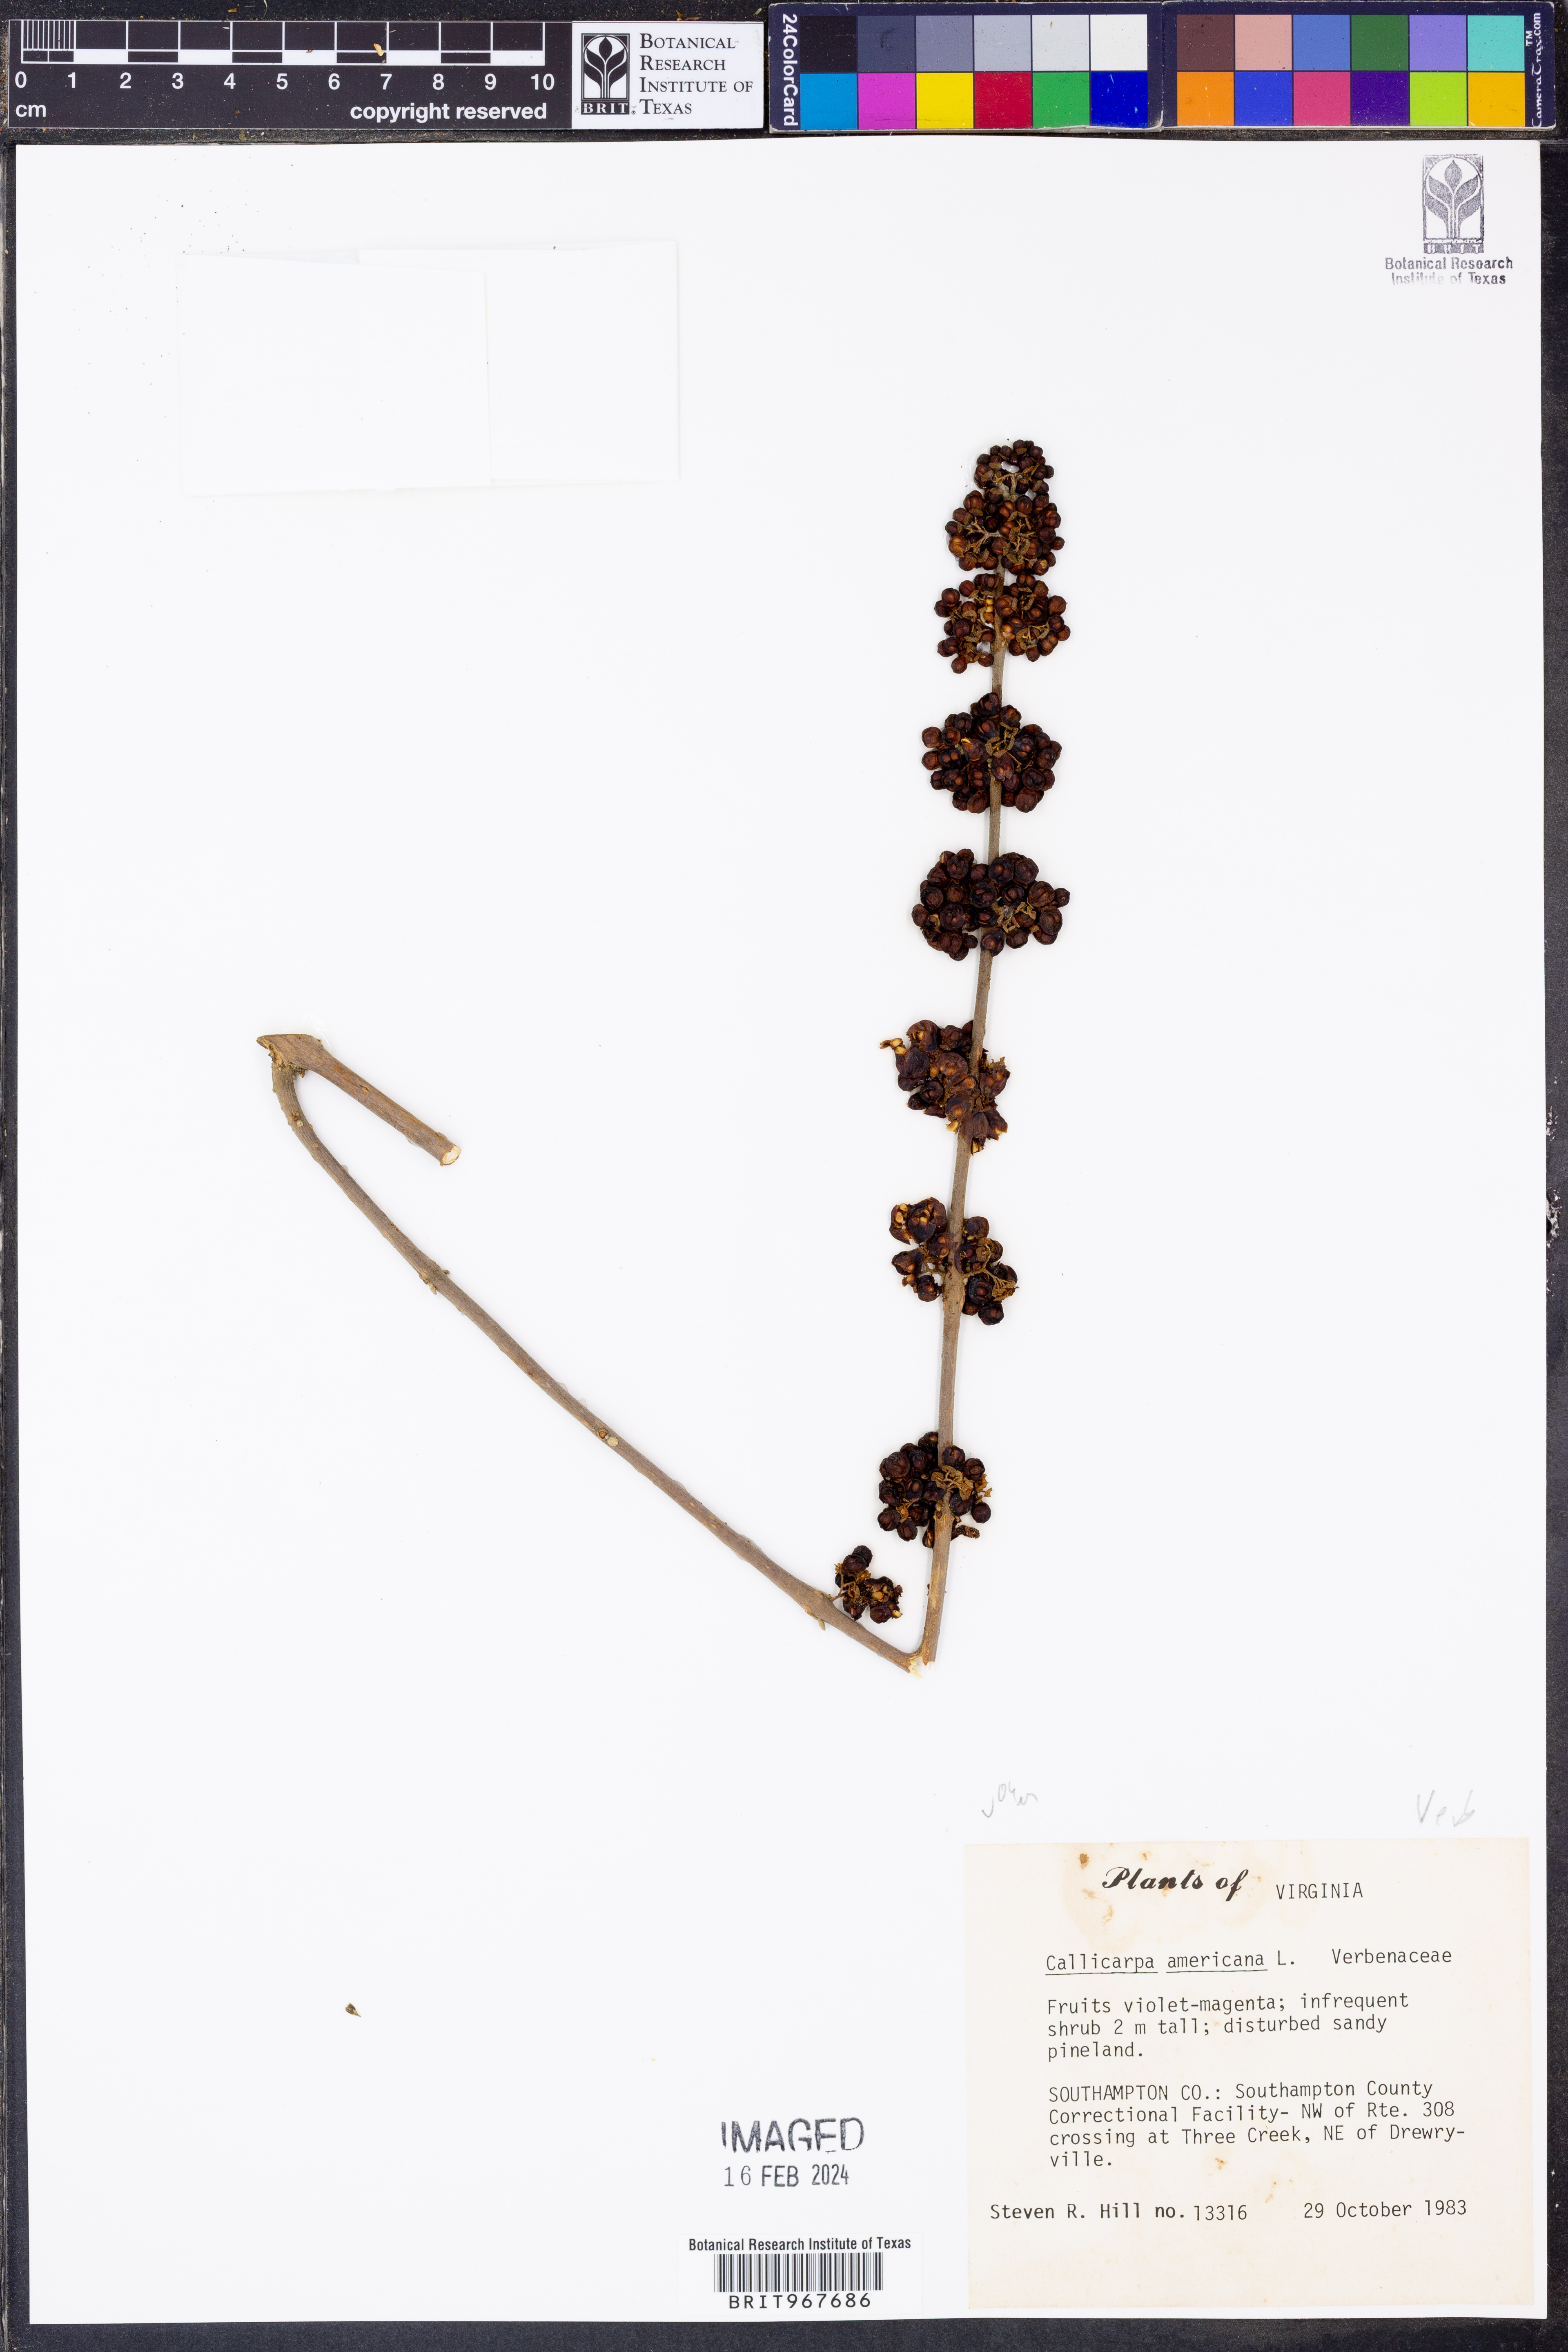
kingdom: Plantae
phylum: Tracheophyta
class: Magnoliopsida
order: Lamiales
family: Lamiaceae
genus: Callicarpa
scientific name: Callicarpa americana
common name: American beautyberry
